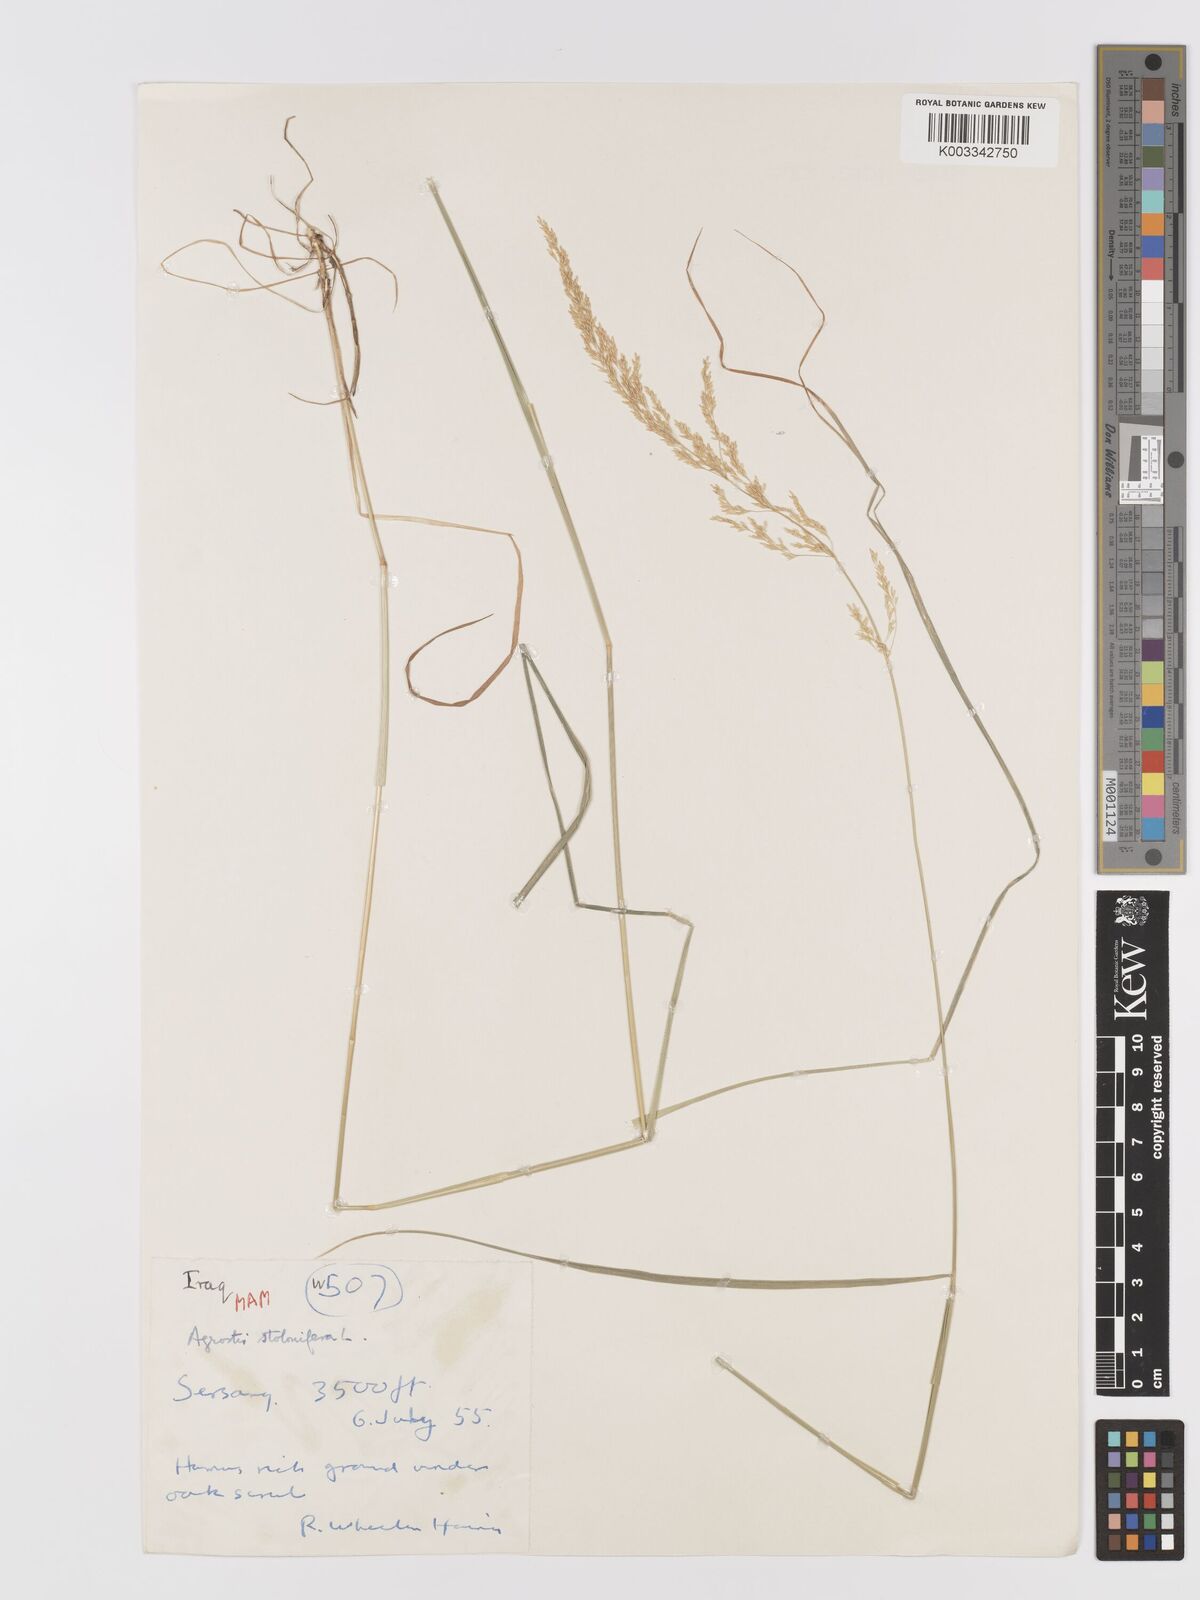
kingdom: Plantae
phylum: Tracheophyta
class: Liliopsida
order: Poales
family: Poaceae
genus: Agrostis
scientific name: Agrostis stolonifera
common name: Creeping bentgrass
